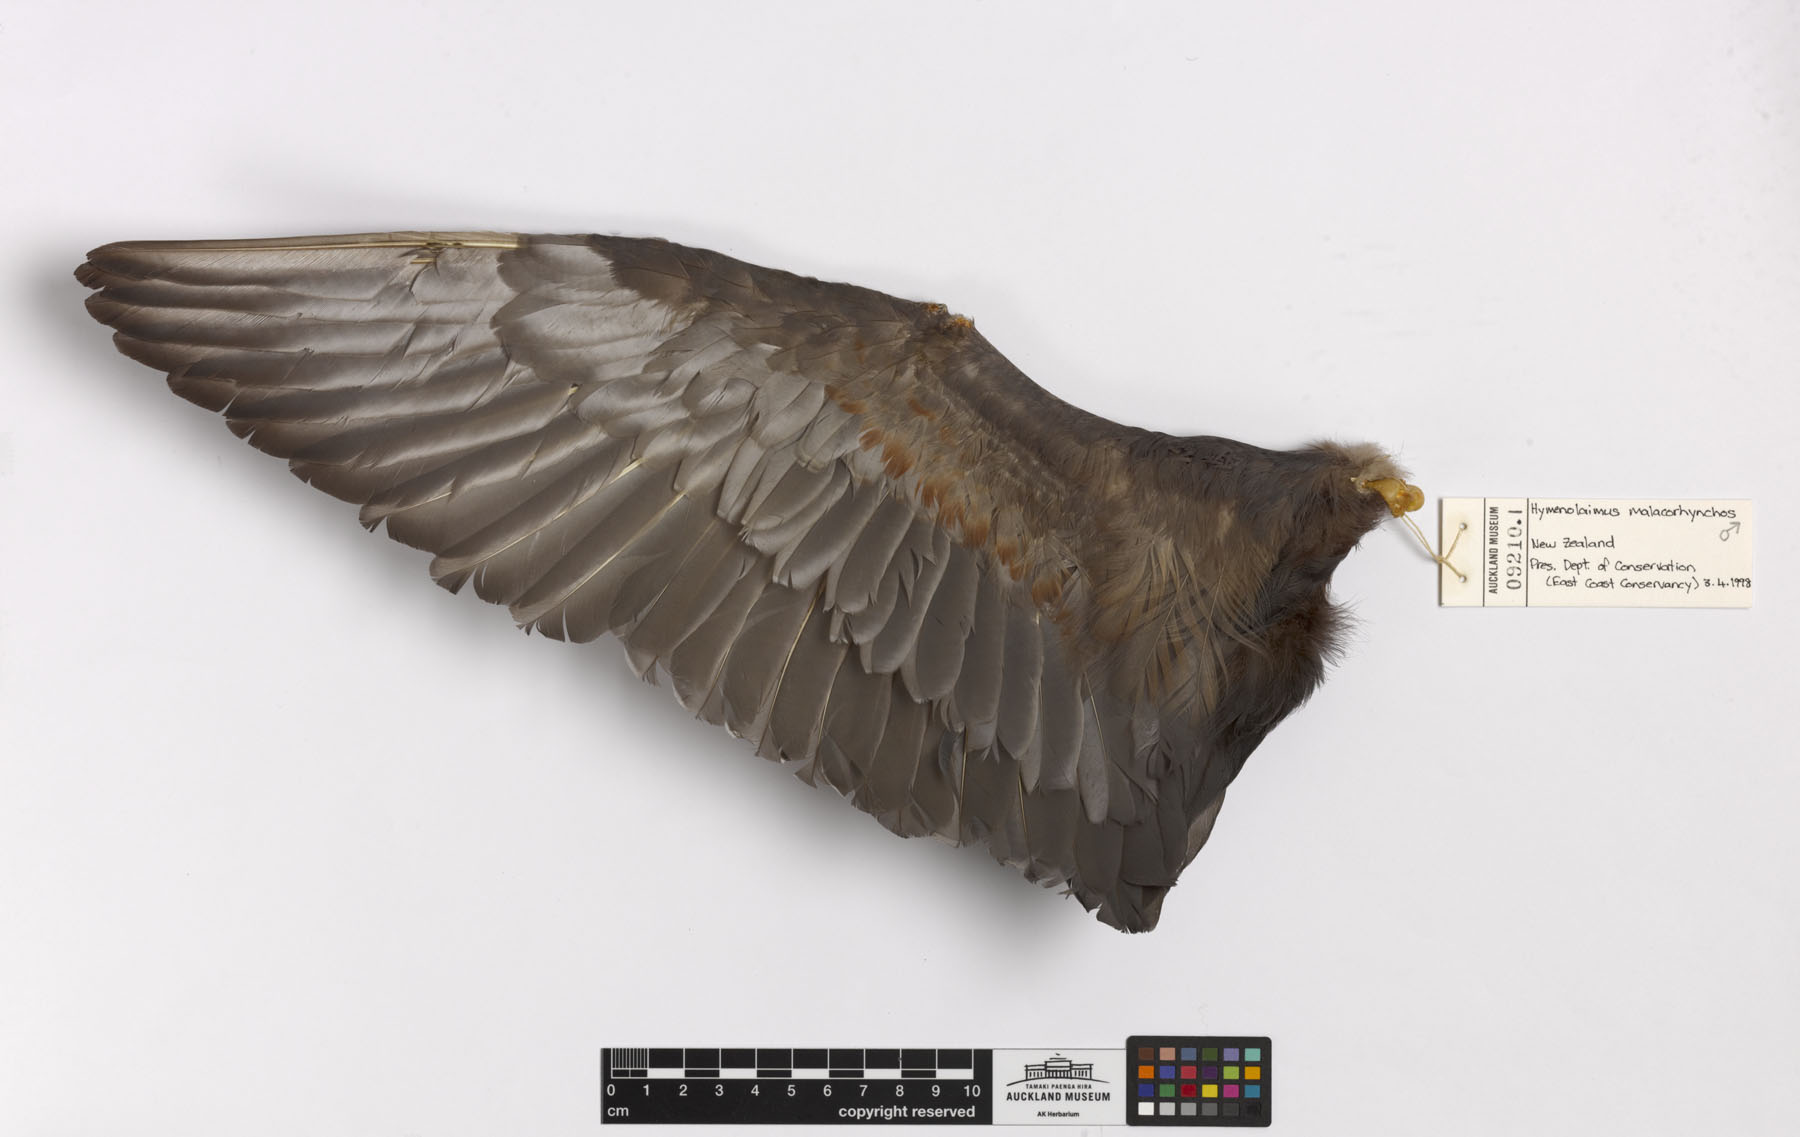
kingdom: Animalia
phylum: Chordata
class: Aves
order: Anseriformes
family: Anatidae
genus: Hymenolaimus
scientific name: Hymenolaimus malacorhynchos
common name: Blue duck
